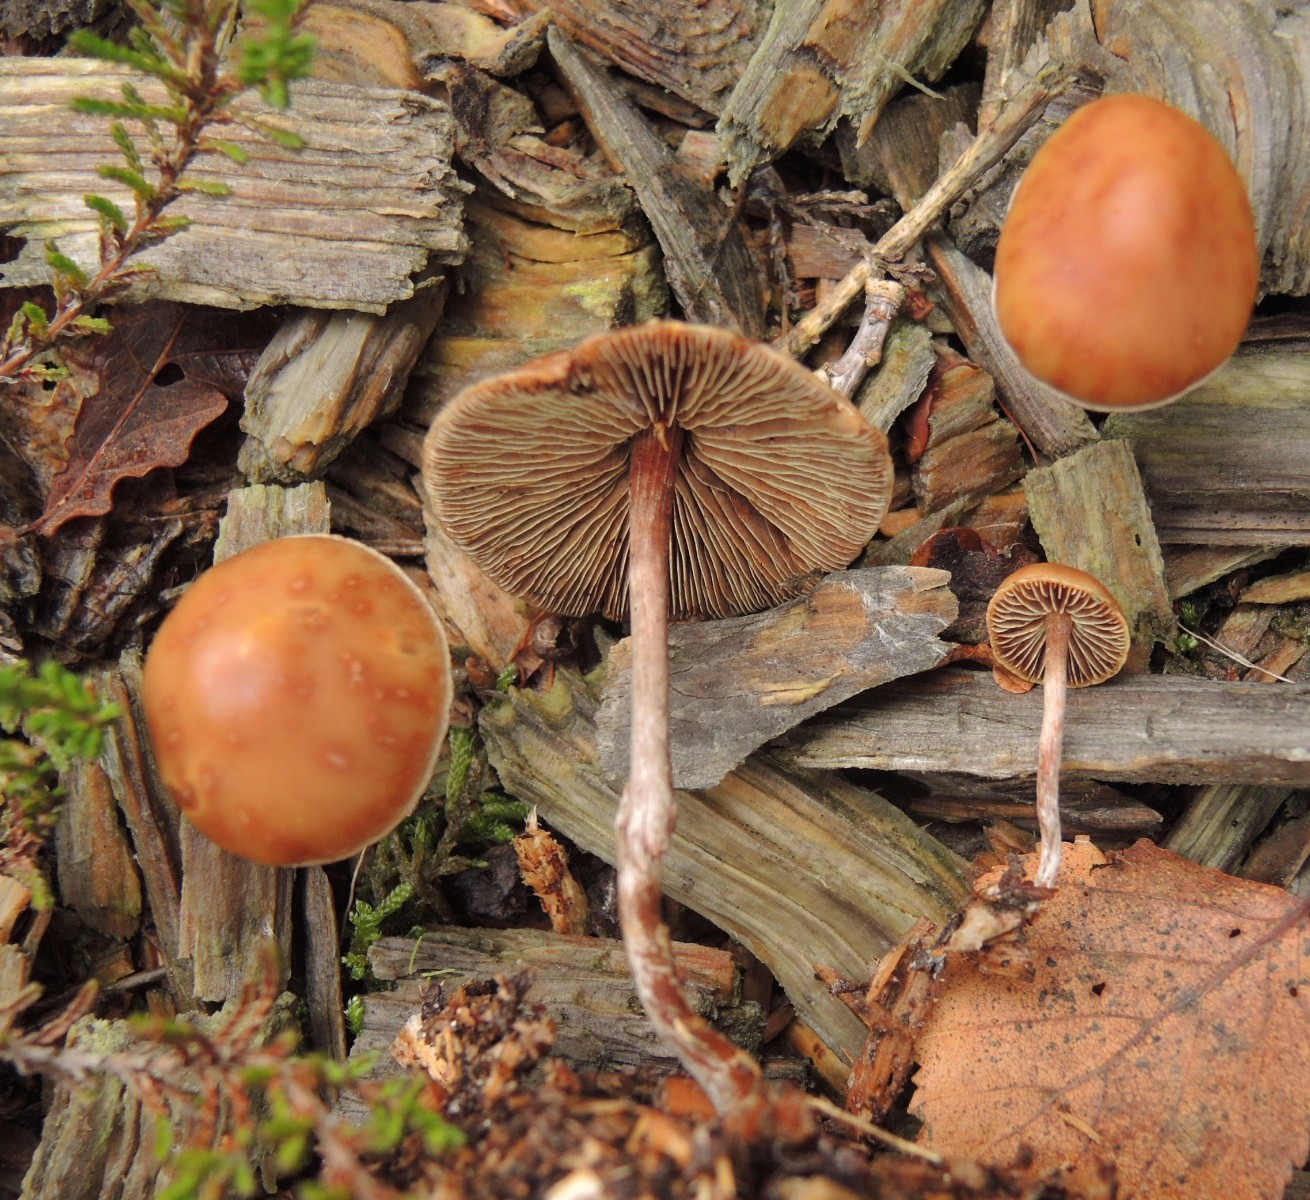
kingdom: Fungi
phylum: Basidiomycota
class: Agaricomycetes
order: Agaricales
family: Strophariaceae
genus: Hypholoma
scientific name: Hypholoma marginatum
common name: enlig svovlhat
